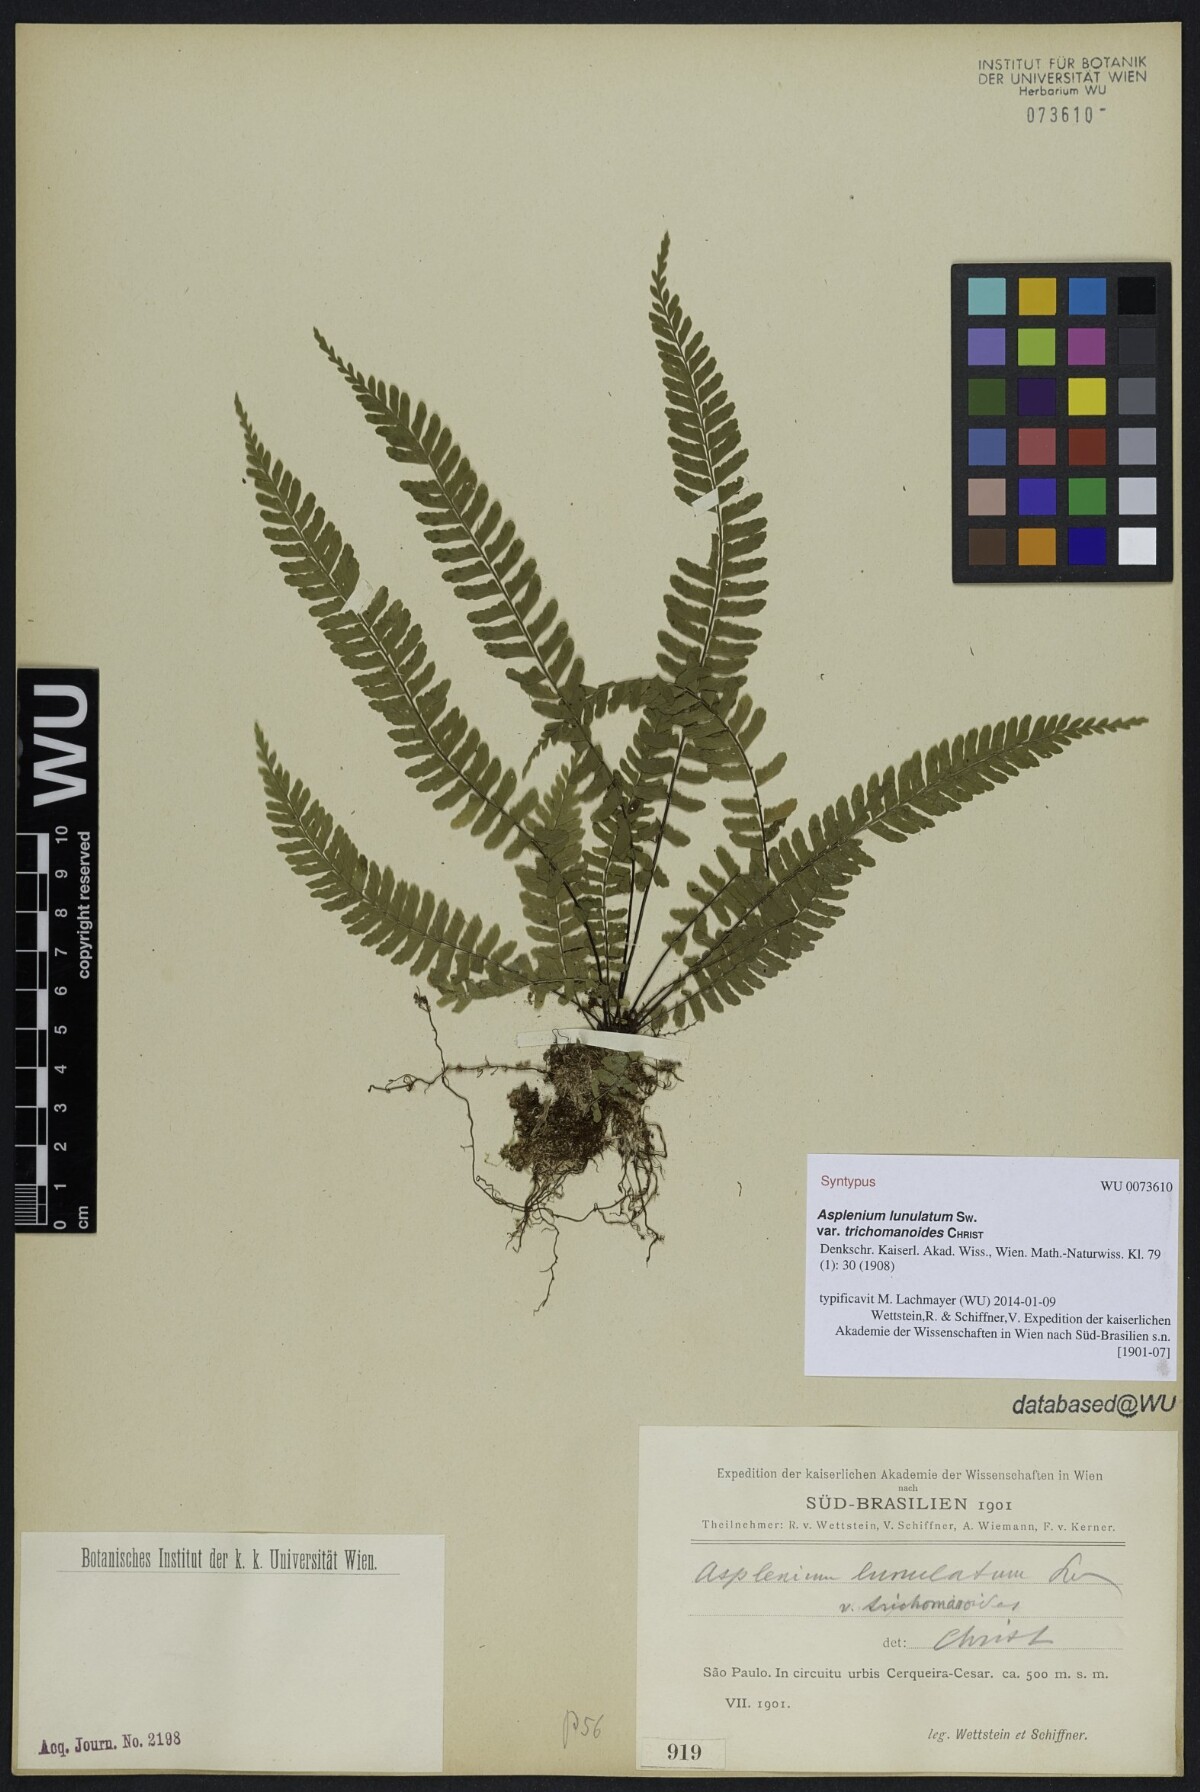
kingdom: Plantae
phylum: Tracheophyta
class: Polypodiopsida
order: Polypodiales
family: Aspleniaceae
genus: Asplenium
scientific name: Asplenium harpeodes
